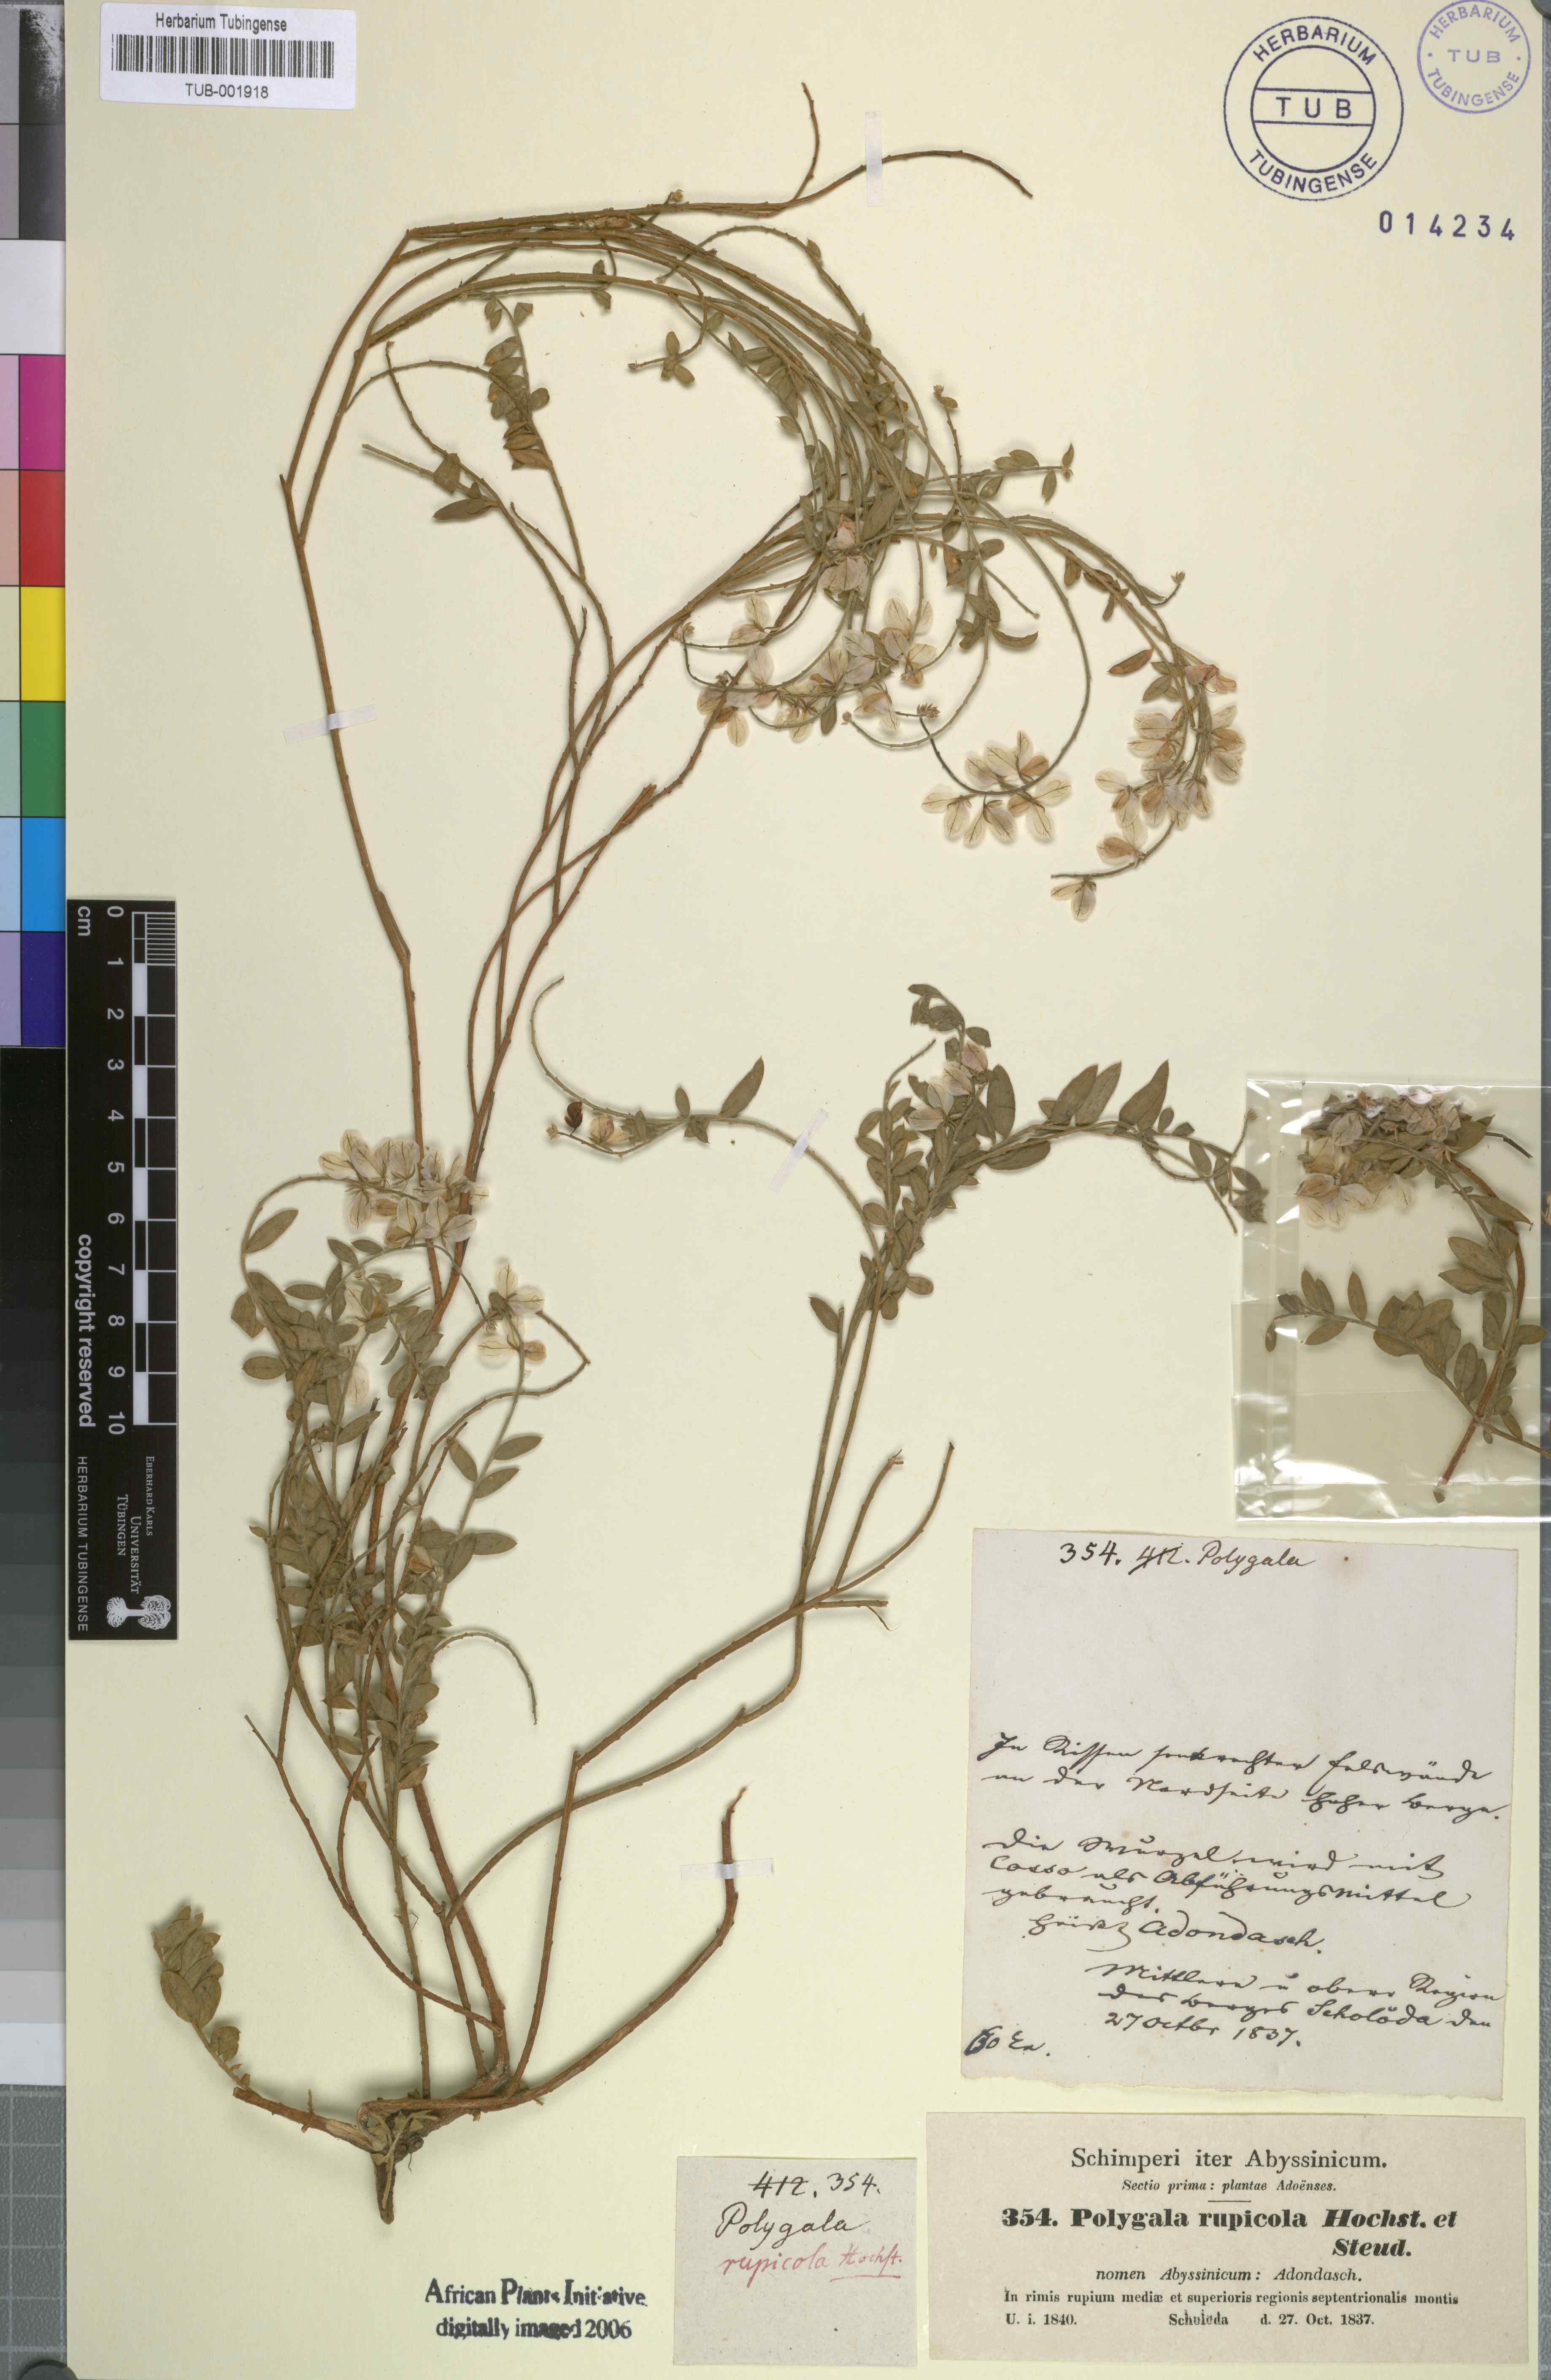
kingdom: Plantae
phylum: Tracheophyta
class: Magnoliopsida
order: Fabales
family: Polygalaceae
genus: Polygala
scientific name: Polygala rupicola
